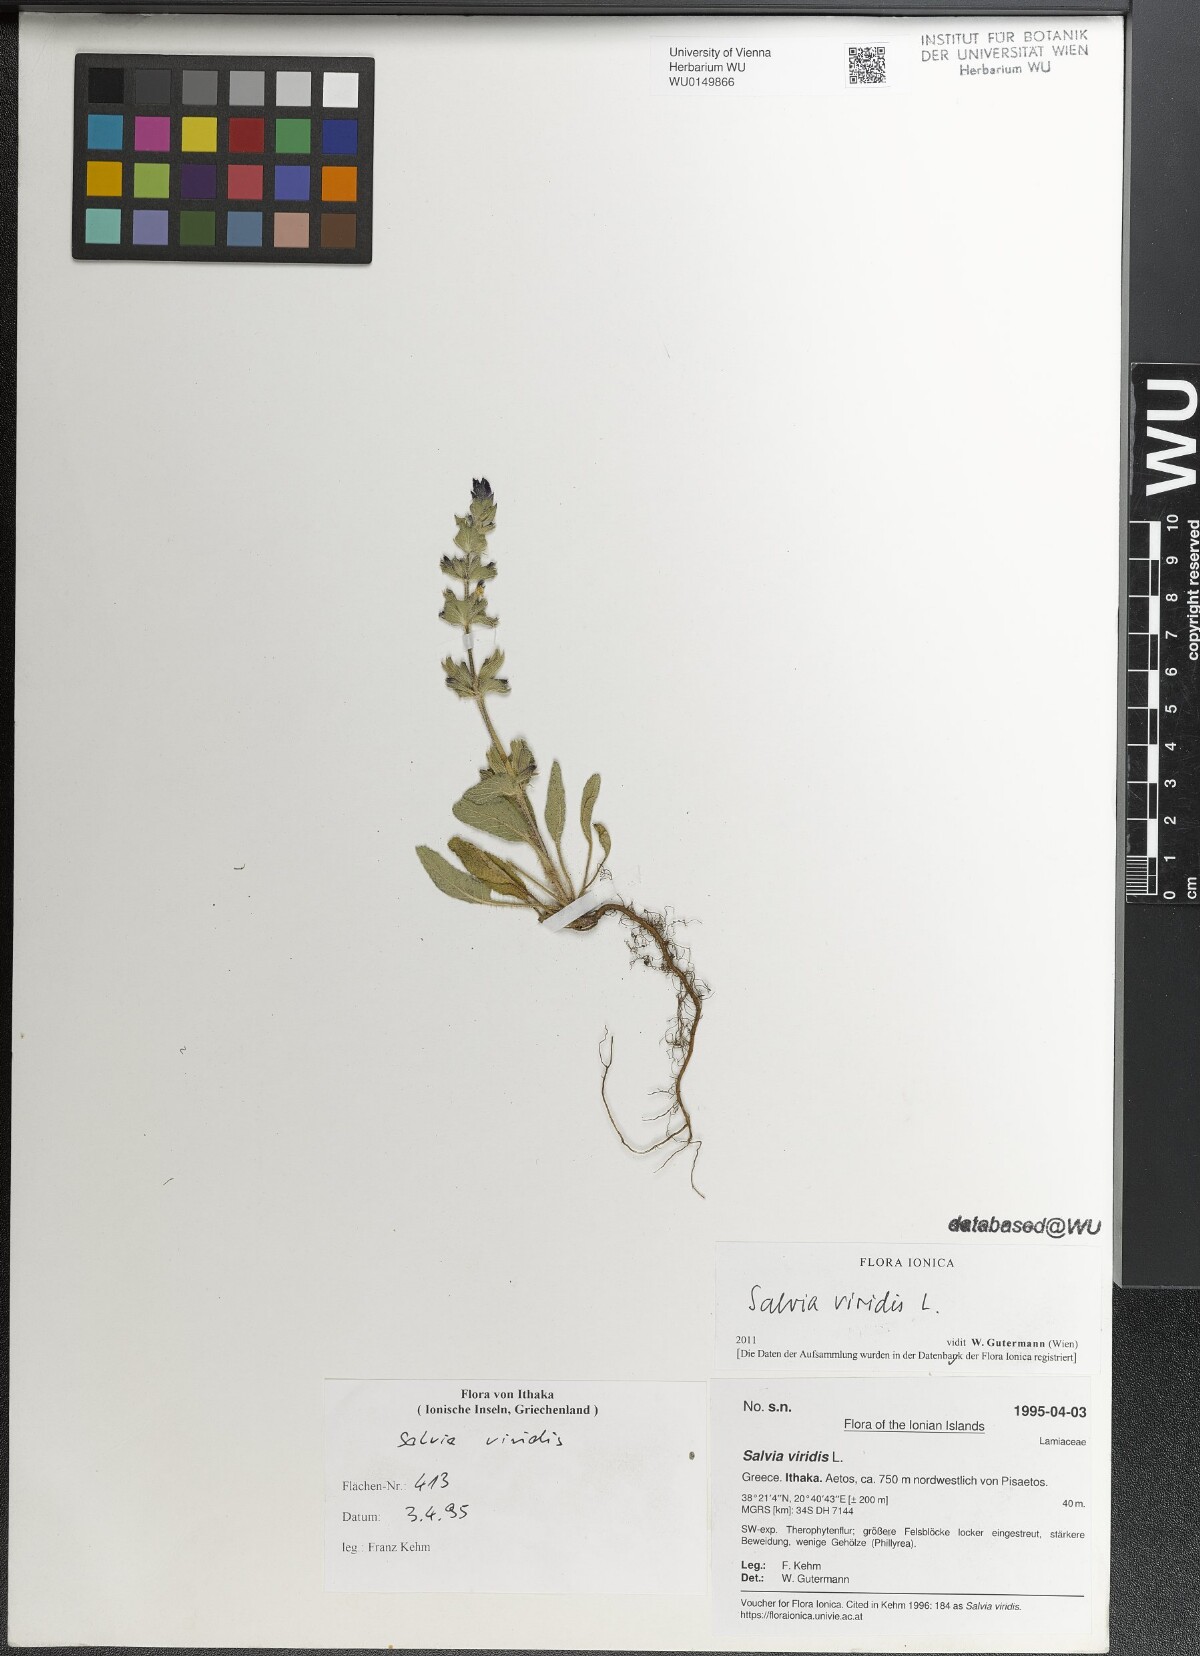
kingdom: Plantae
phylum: Tracheophyta
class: Magnoliopsida
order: Lamiales
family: Lamiaceae
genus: Salvia
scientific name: Salvia viridis
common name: Annual clary
